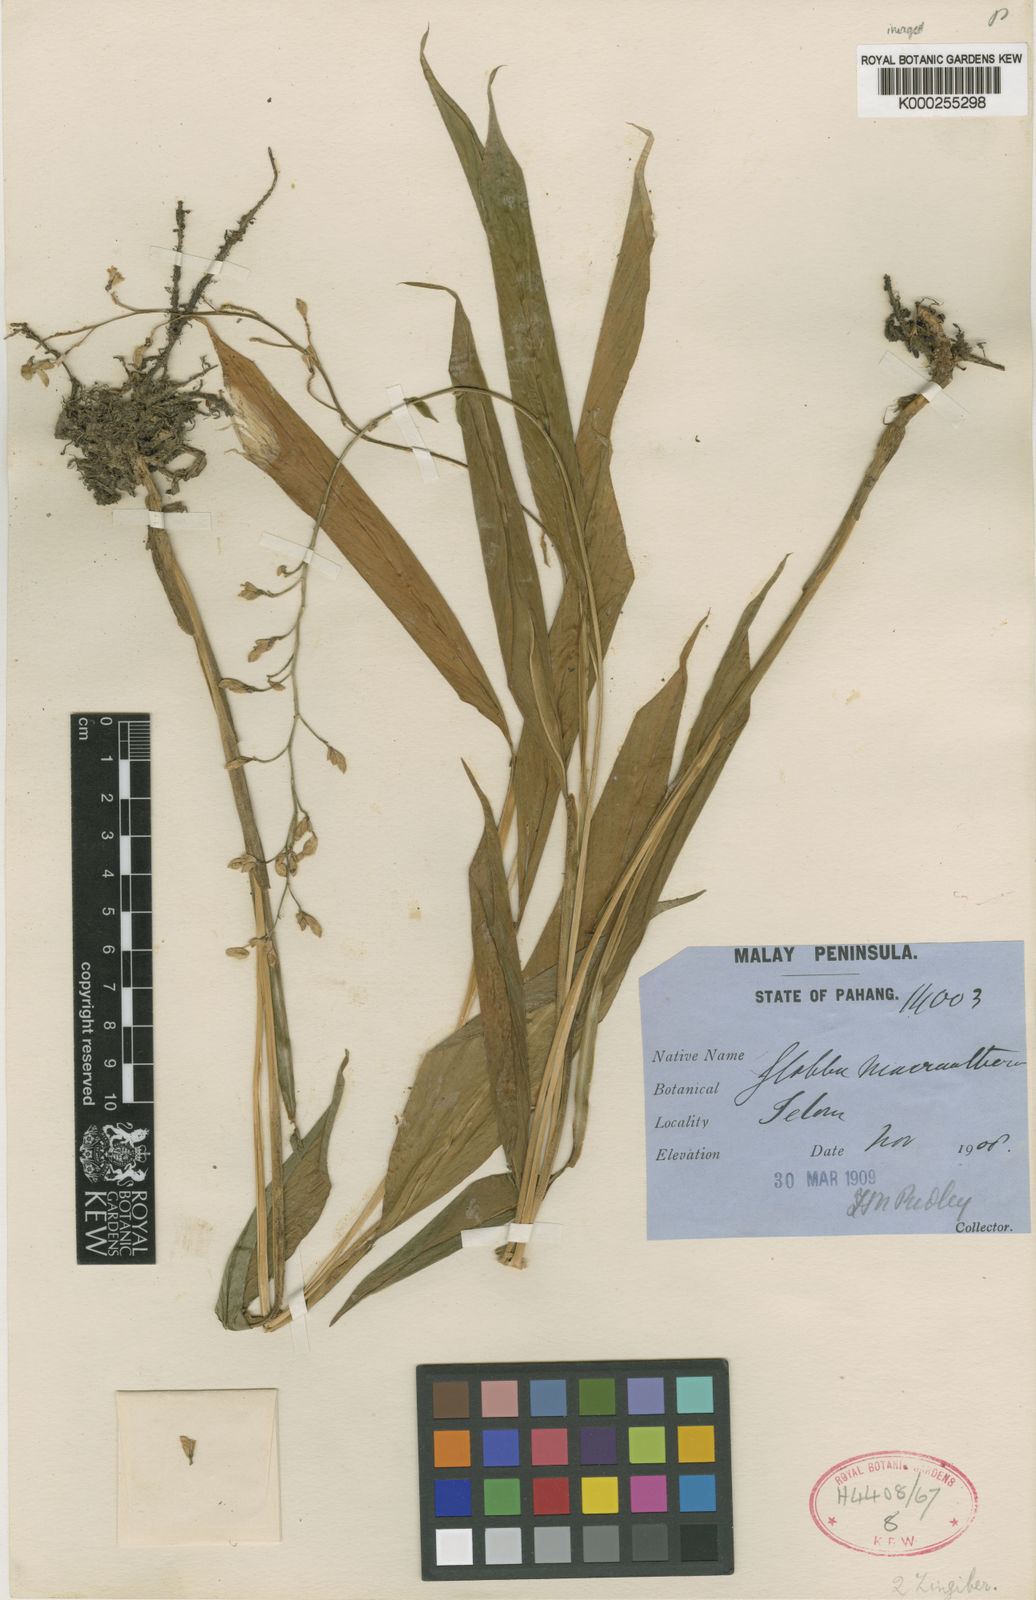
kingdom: Plantae
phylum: Tracheophyta
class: Liliopsida
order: Zingiberales
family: Zingiberaceae
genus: Globba
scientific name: Globba cernua
